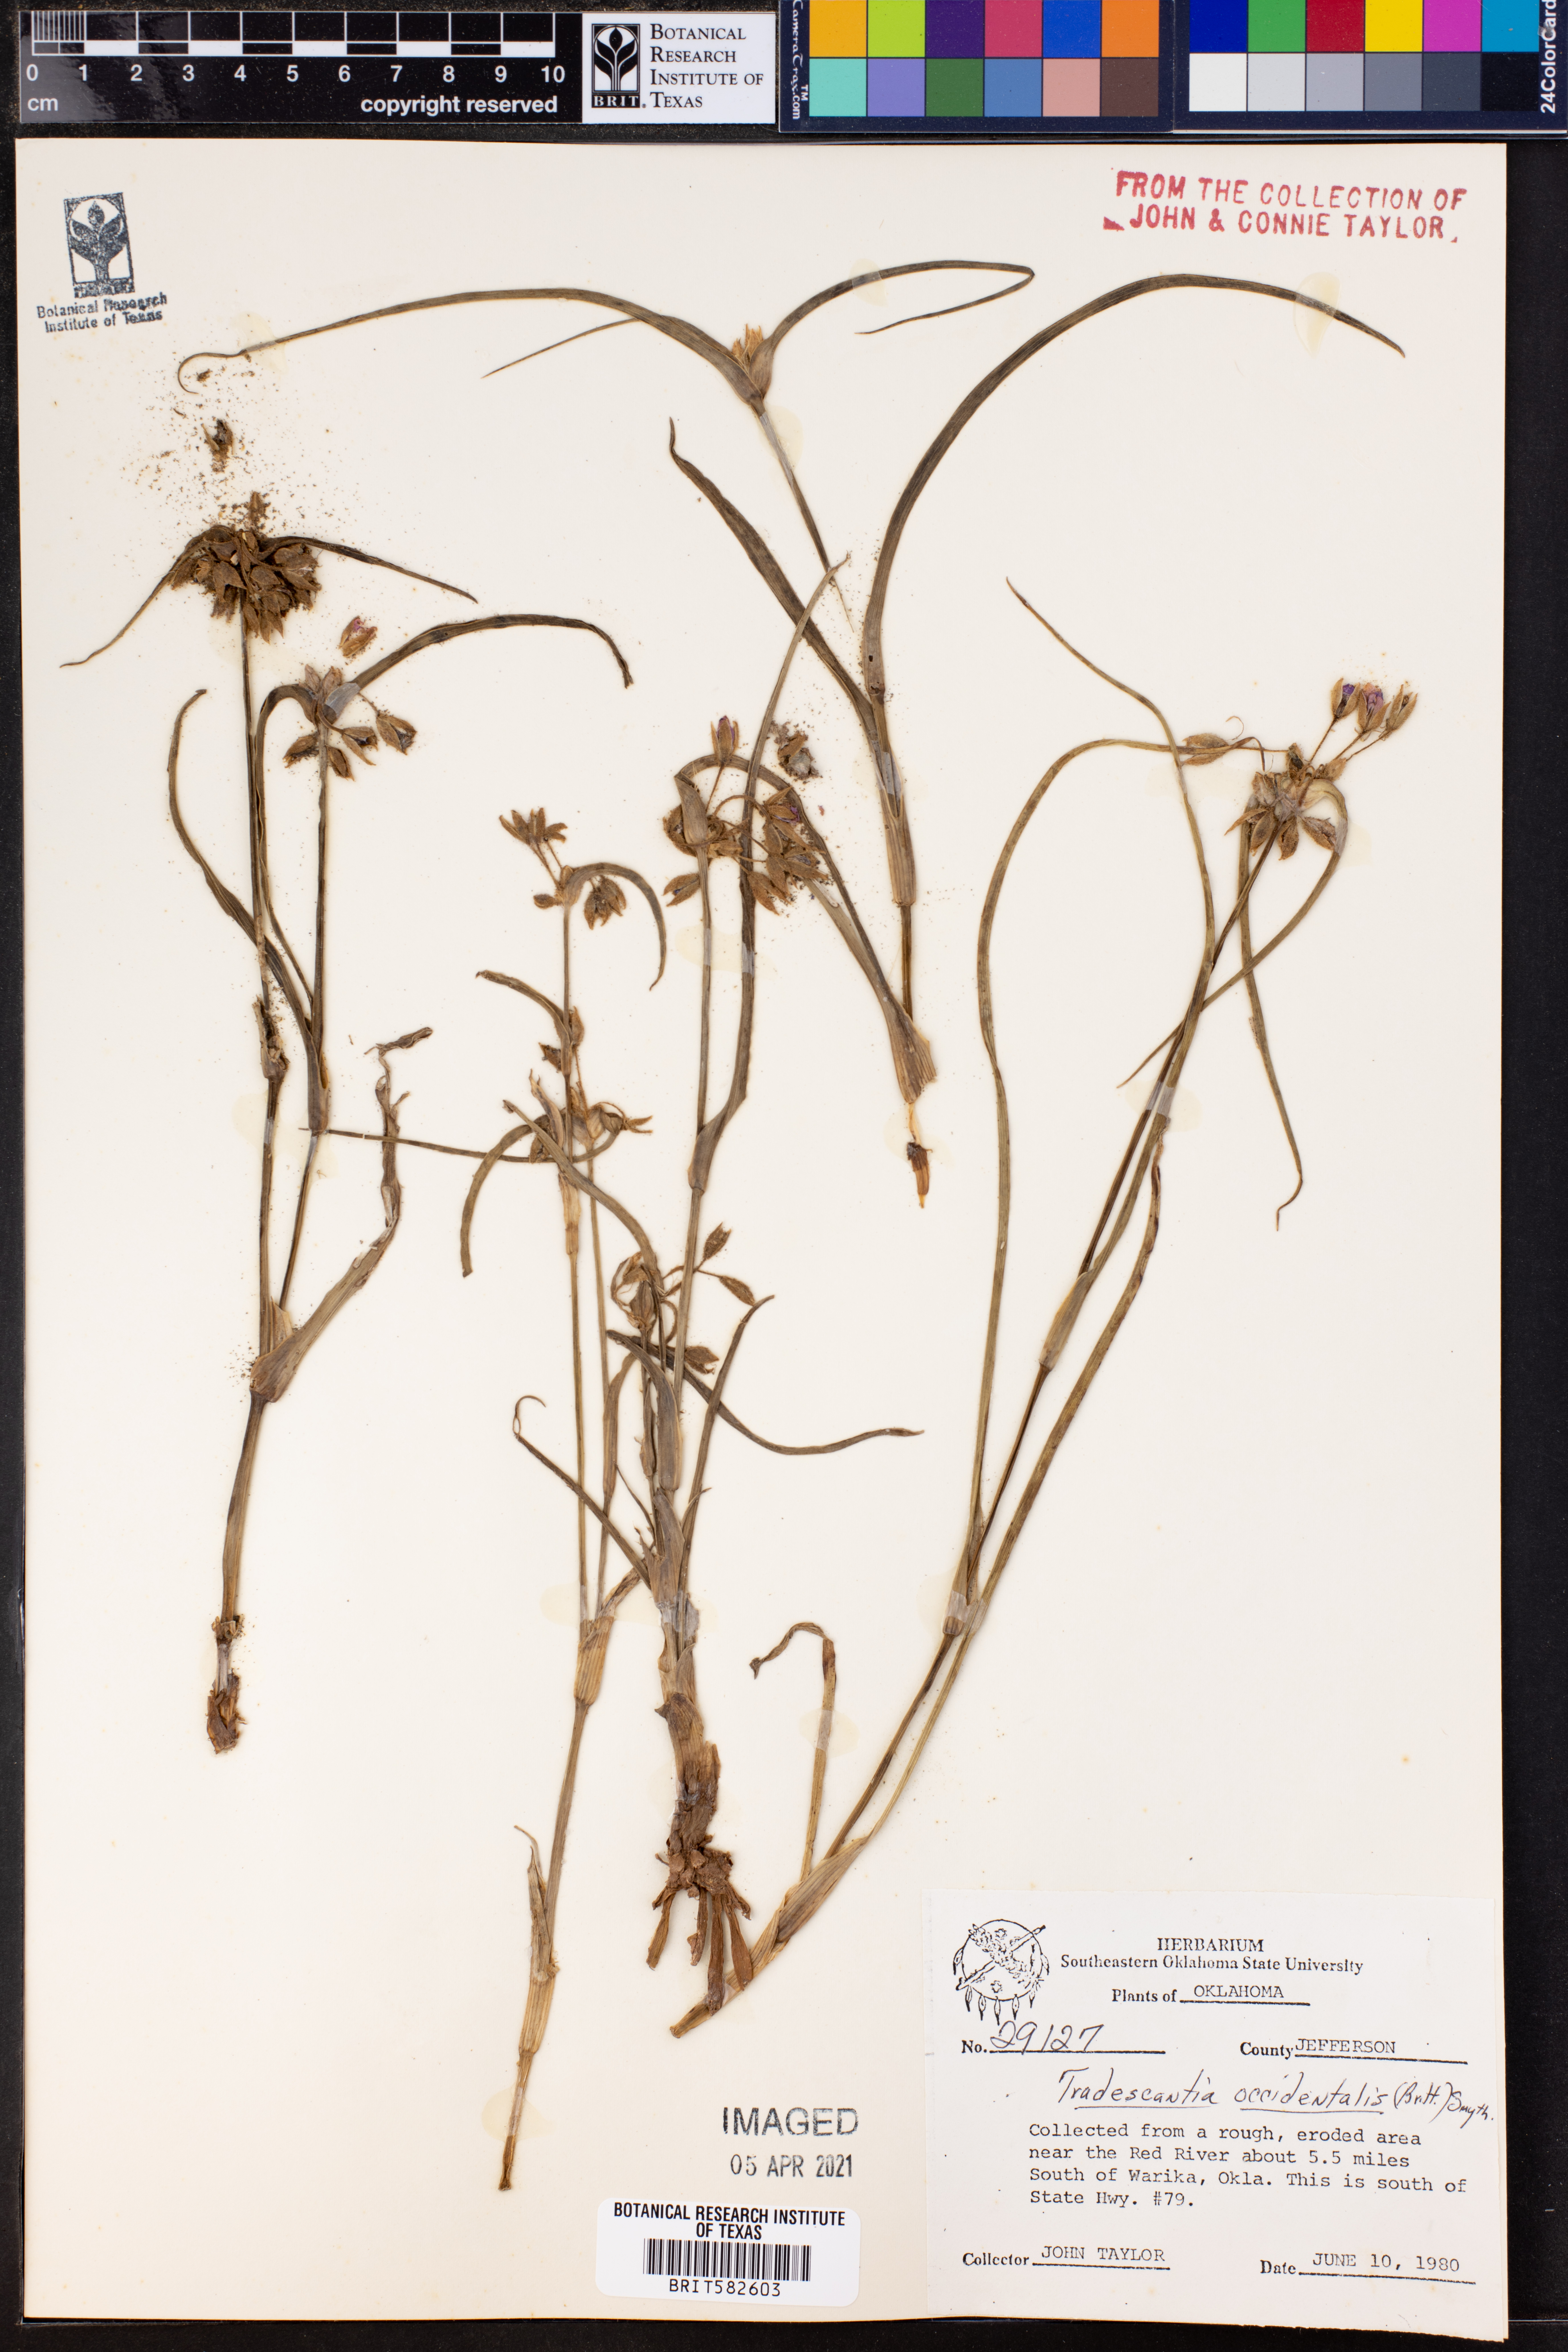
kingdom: Plantae
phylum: Tracheophyta
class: Liliopsida
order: Commelinales
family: Commelinaceae
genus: Tradescantia
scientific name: Tradescantia occidentalis
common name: Prairie spiderwort
